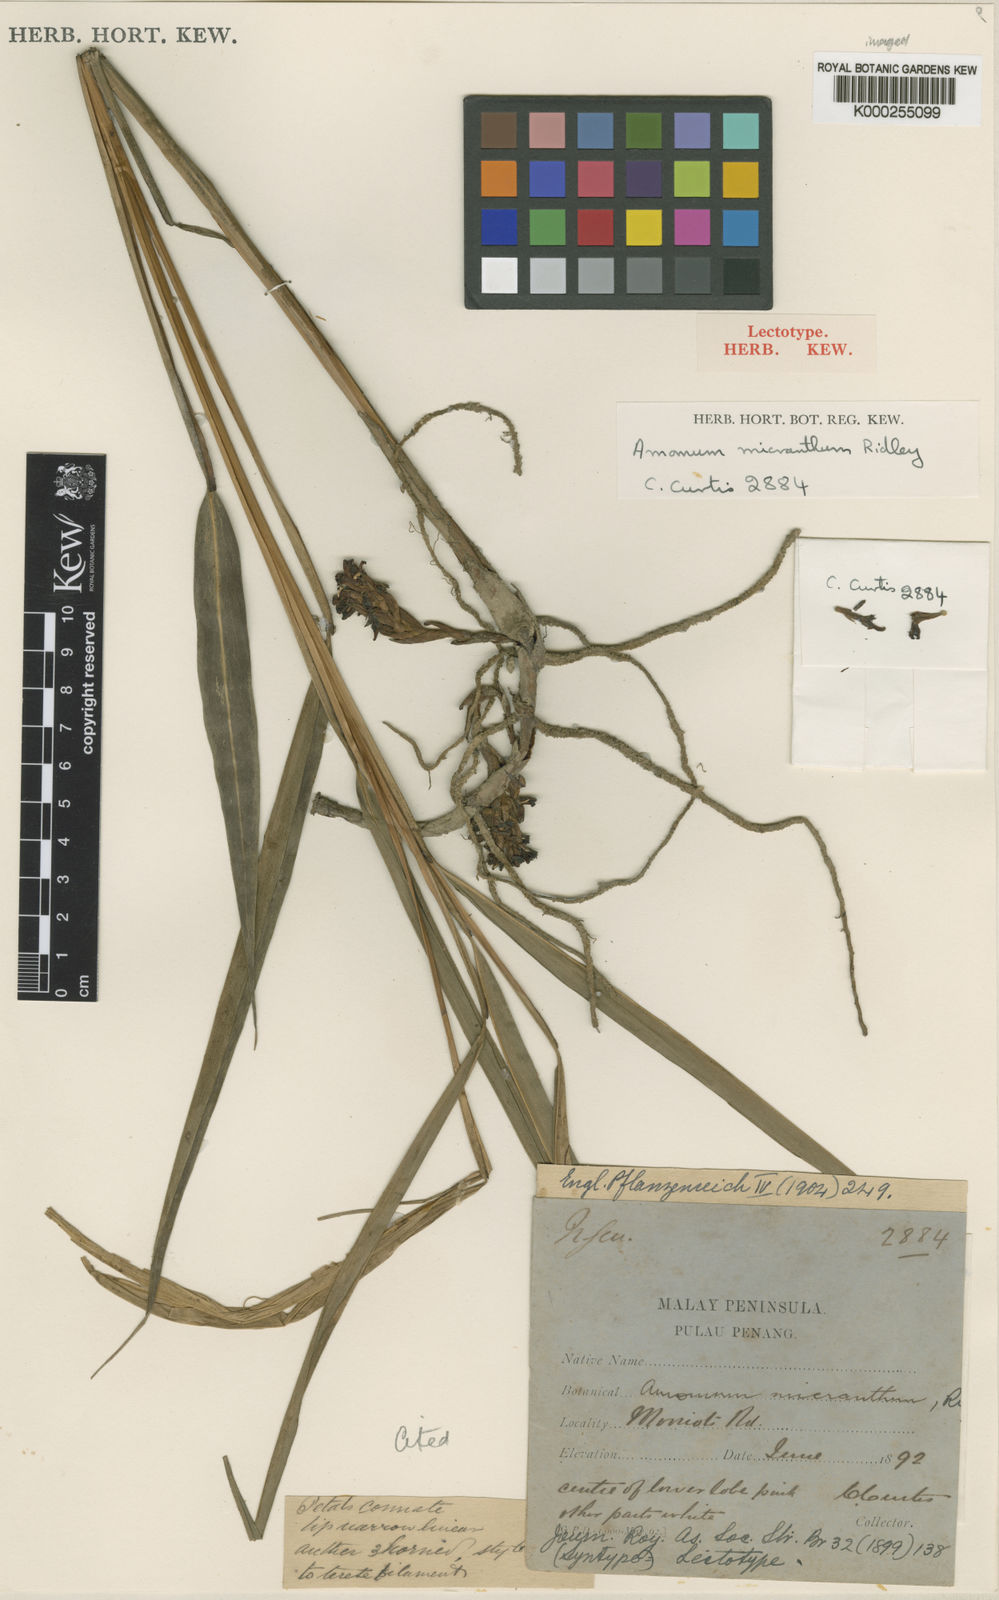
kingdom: Plantae
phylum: Tracheophyta
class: Liliopsida
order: Zingiberales
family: Zingiberaceae
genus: Wurfbainia
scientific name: Wurfbainia micrantha
